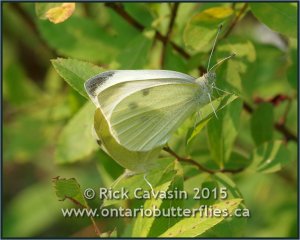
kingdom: Animalia
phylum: Arthropoda
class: Insecta
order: Lepidoptera
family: Pieridae
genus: Pieris
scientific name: Pieris rapae
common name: Cabbage White
